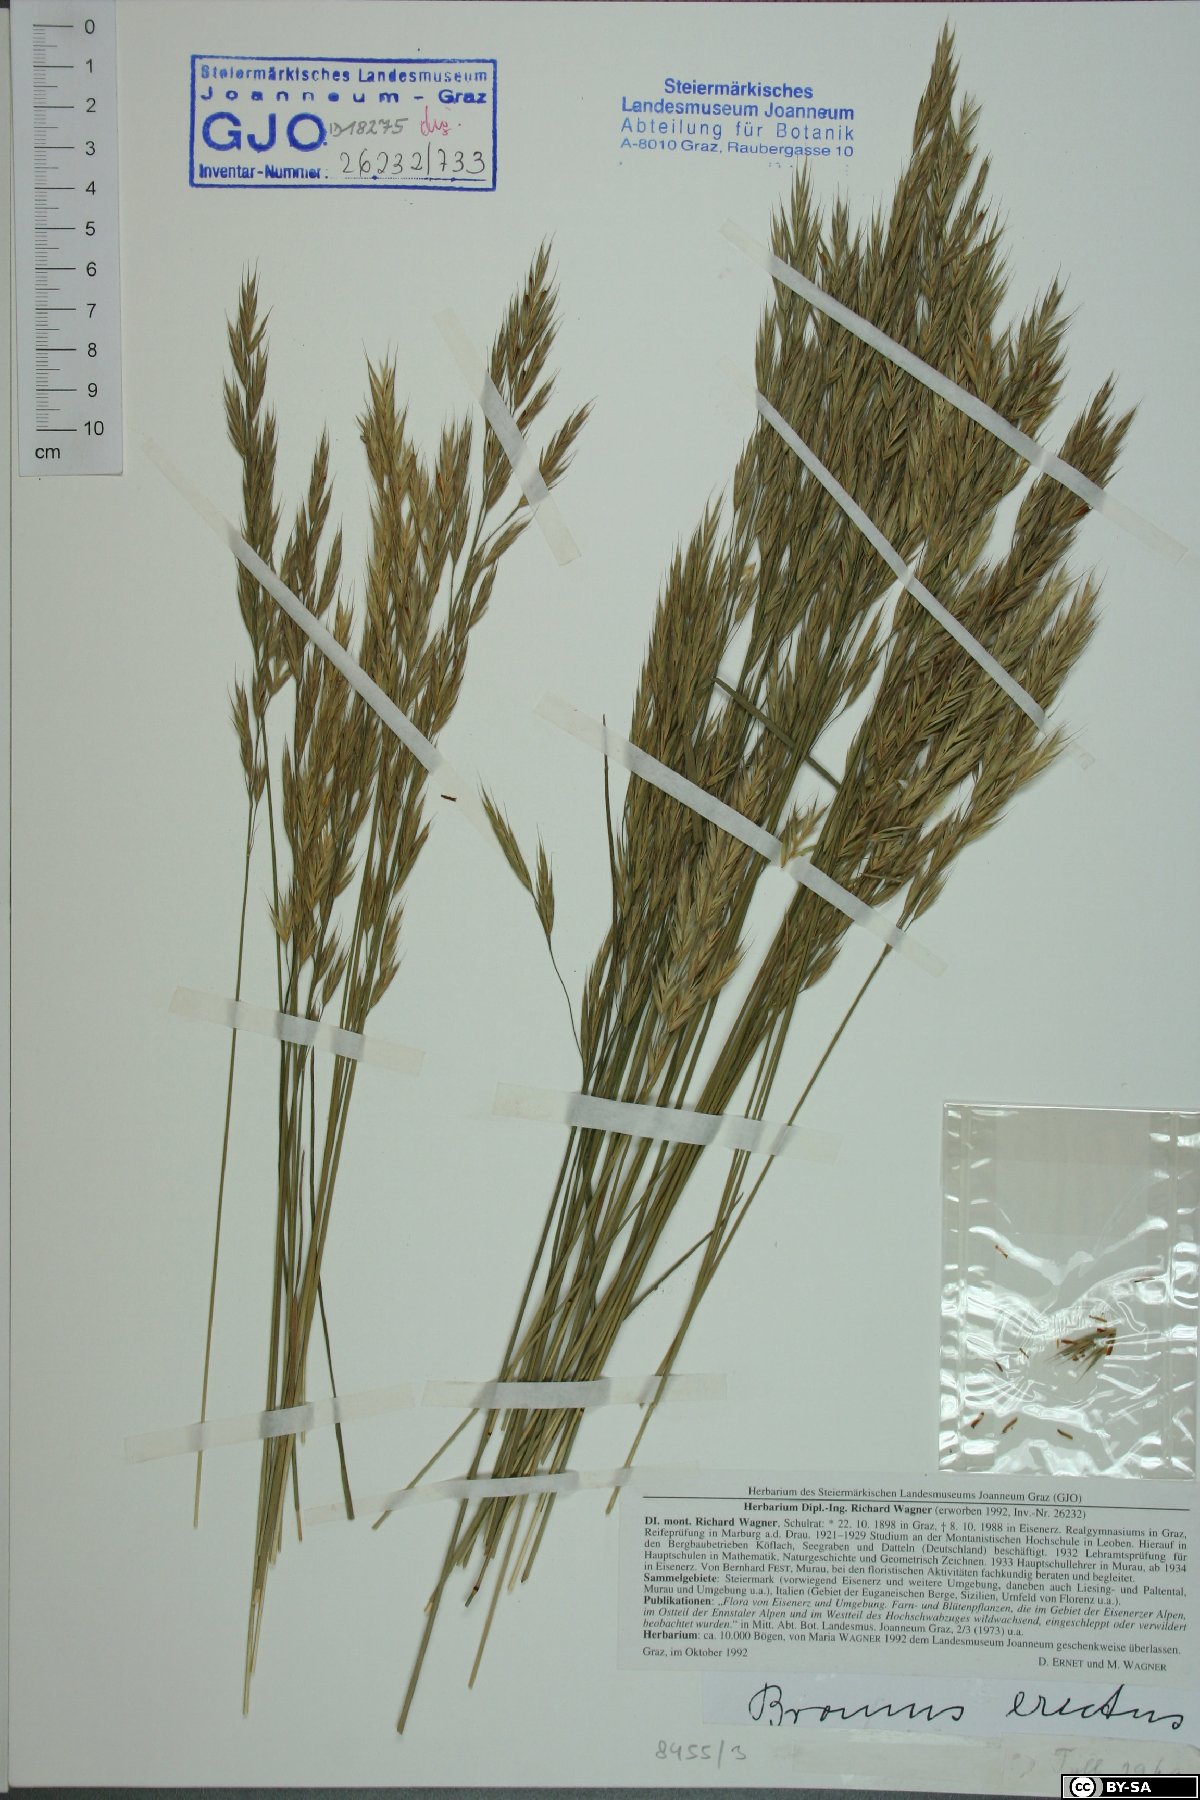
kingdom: Plantae
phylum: Tracheophyta
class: Liliopsida
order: Poales
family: Poaceae
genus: Bromus
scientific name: Bromus erectus
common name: Erect brome
